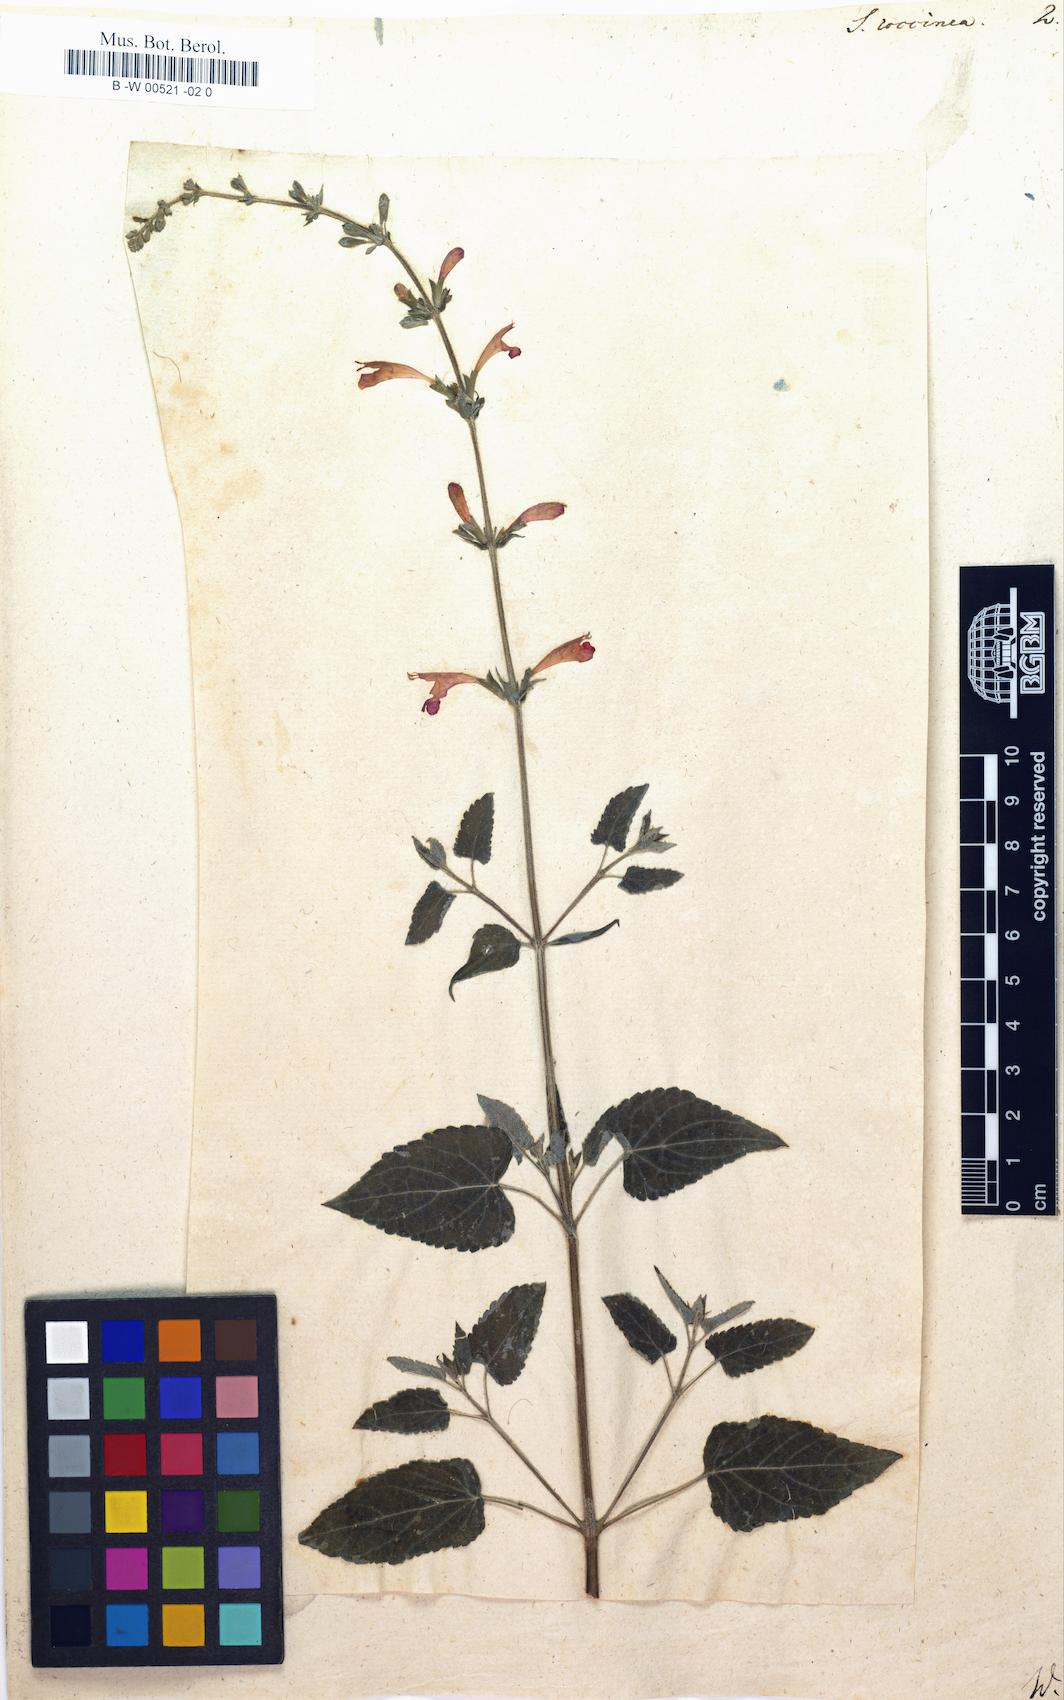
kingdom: Plantae
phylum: Tracheophyta
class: Magnoliopsida
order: Lamiales
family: Lamiaceae
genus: Salvia
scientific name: Salvia coccinea
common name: Blood sage
